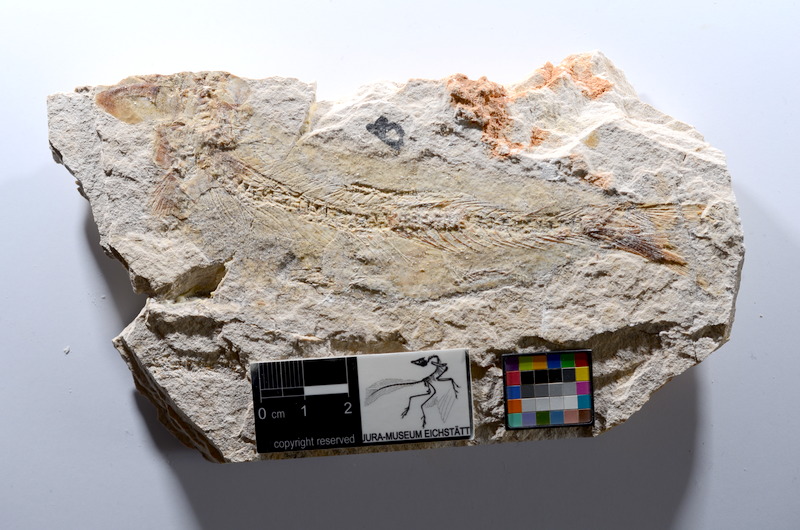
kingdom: Animalia
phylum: Chordata
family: Ascalaboidae
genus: Tharsis
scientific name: Tharsis dubius
